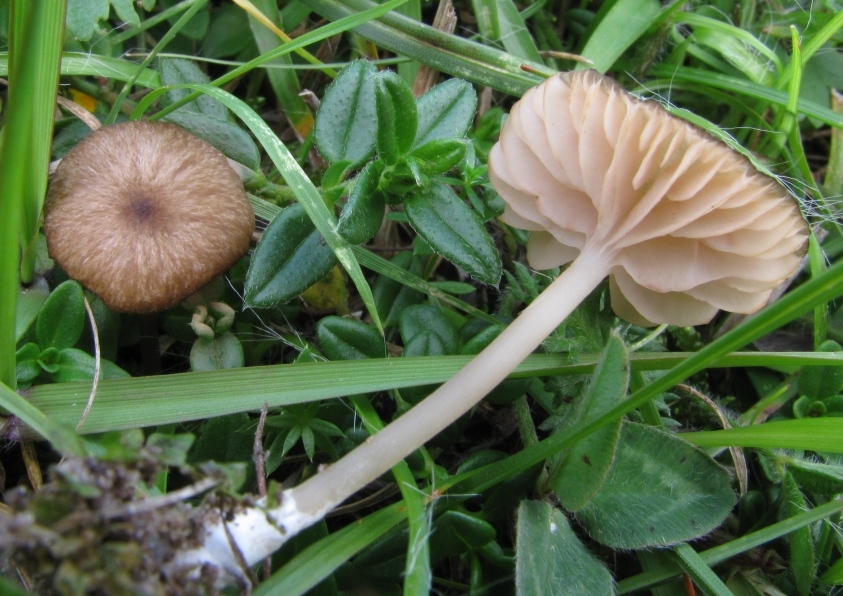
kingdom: Fungi
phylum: Basidiomycota
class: Agaricomycetes
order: Agaricales
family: Entolomataceae
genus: Entoloma
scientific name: Entoloma olivaceotinctum
